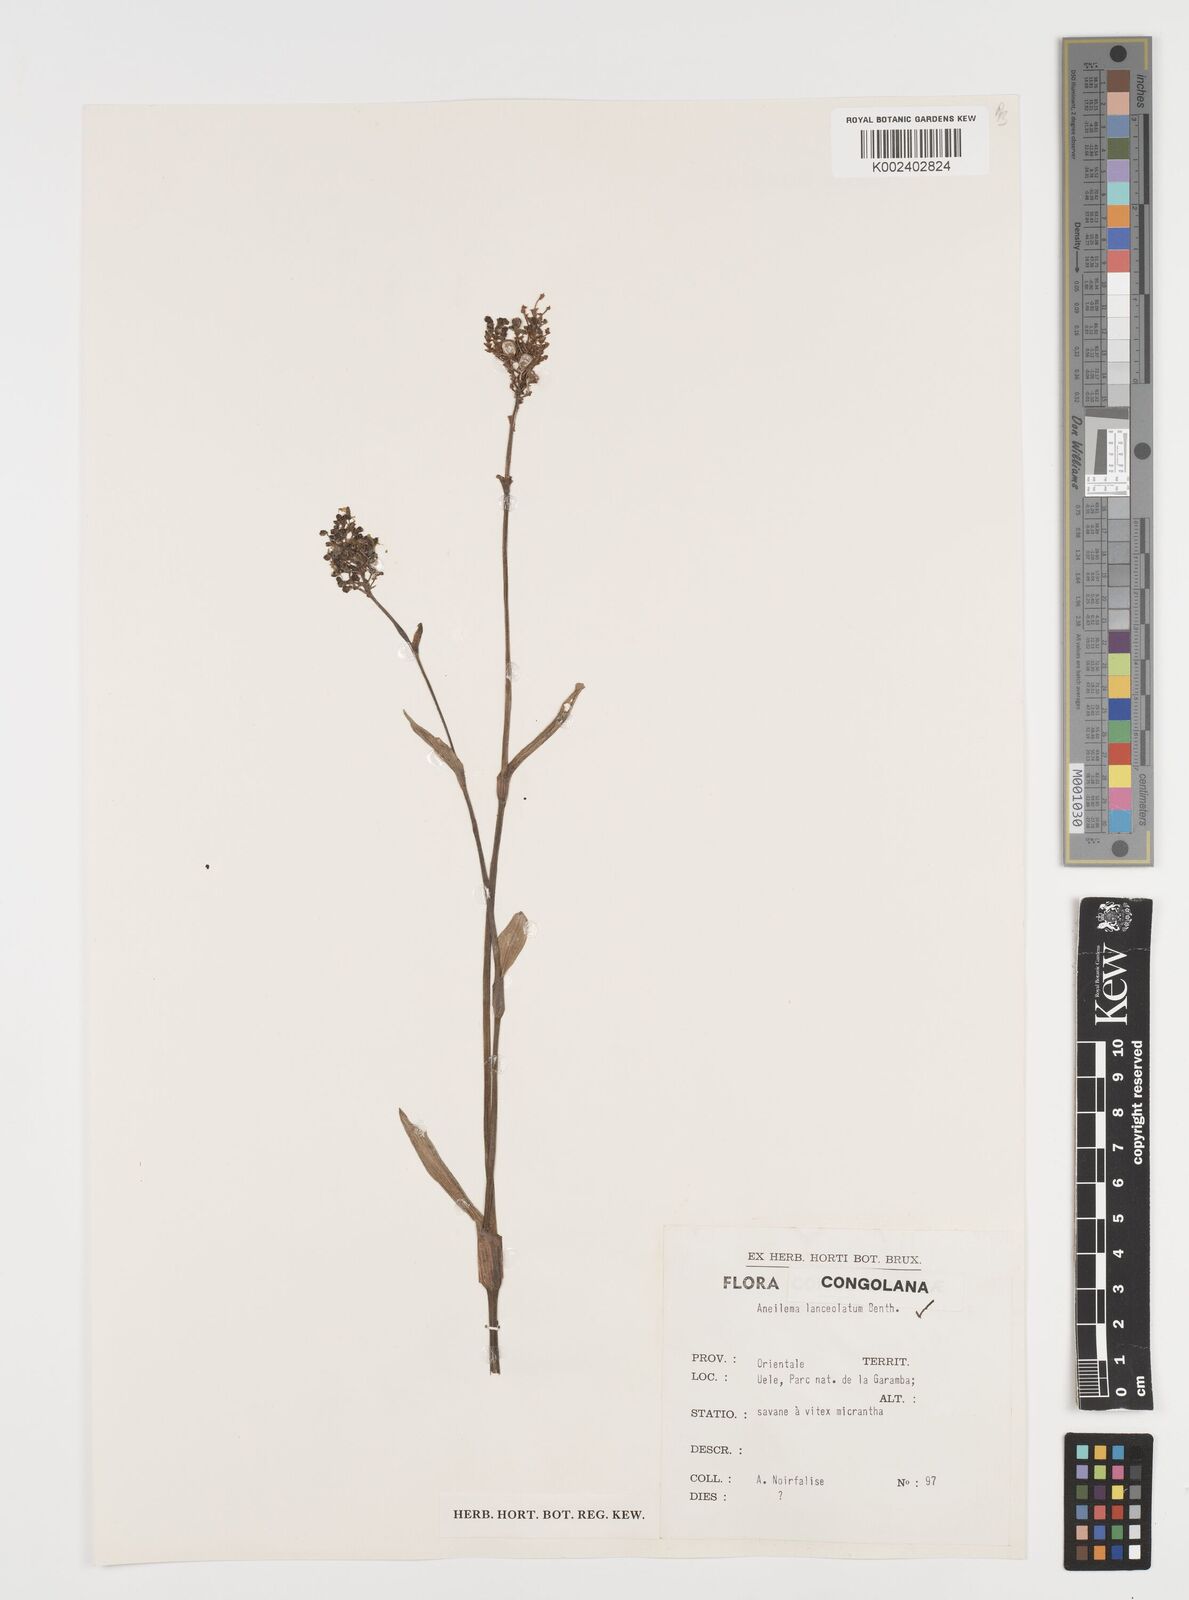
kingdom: Plantae
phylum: Tracheophyta
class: Liliopsida
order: Commelinales
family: Commelinaceae
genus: Aneilema
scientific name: Aneilema lanceolatum
